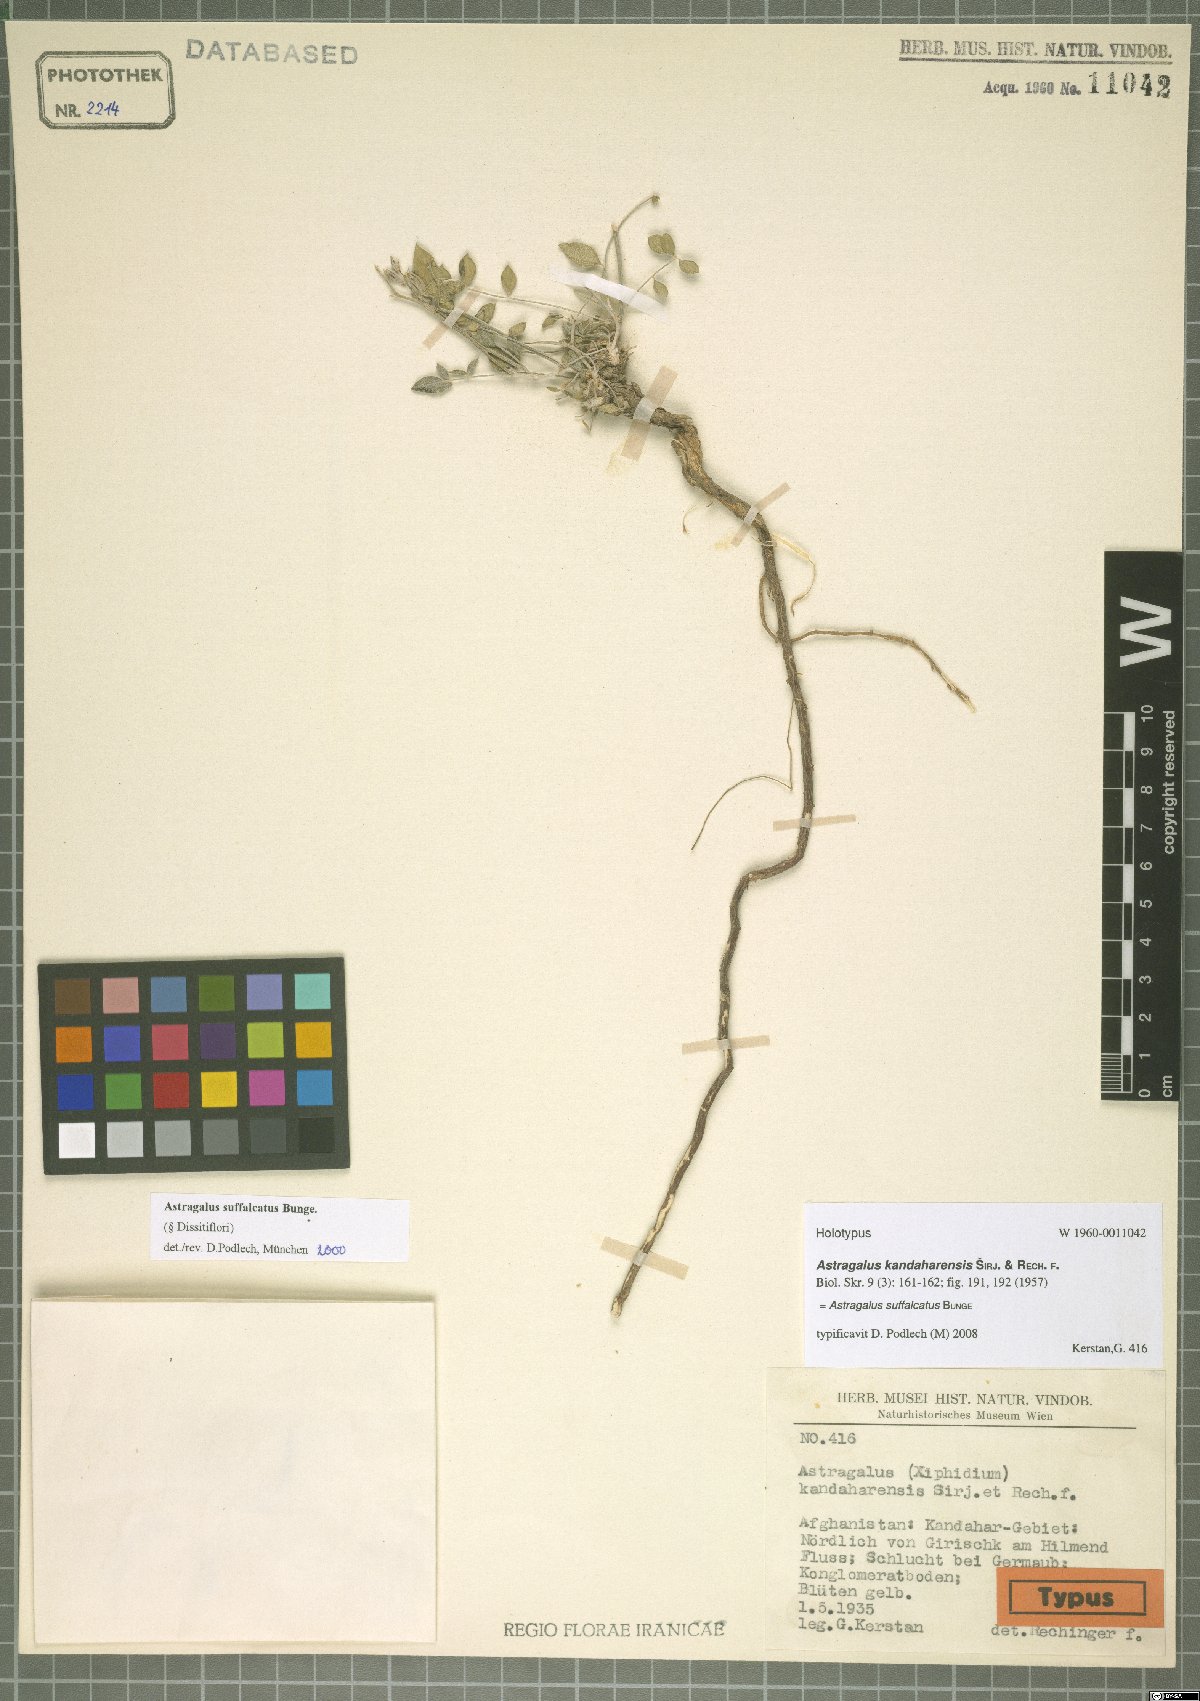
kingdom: Plantae
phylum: Tracheophyta
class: Magnoliopsida
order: Fabales
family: Fabaceae
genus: Astragalus
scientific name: Astragalus suffalcatus
